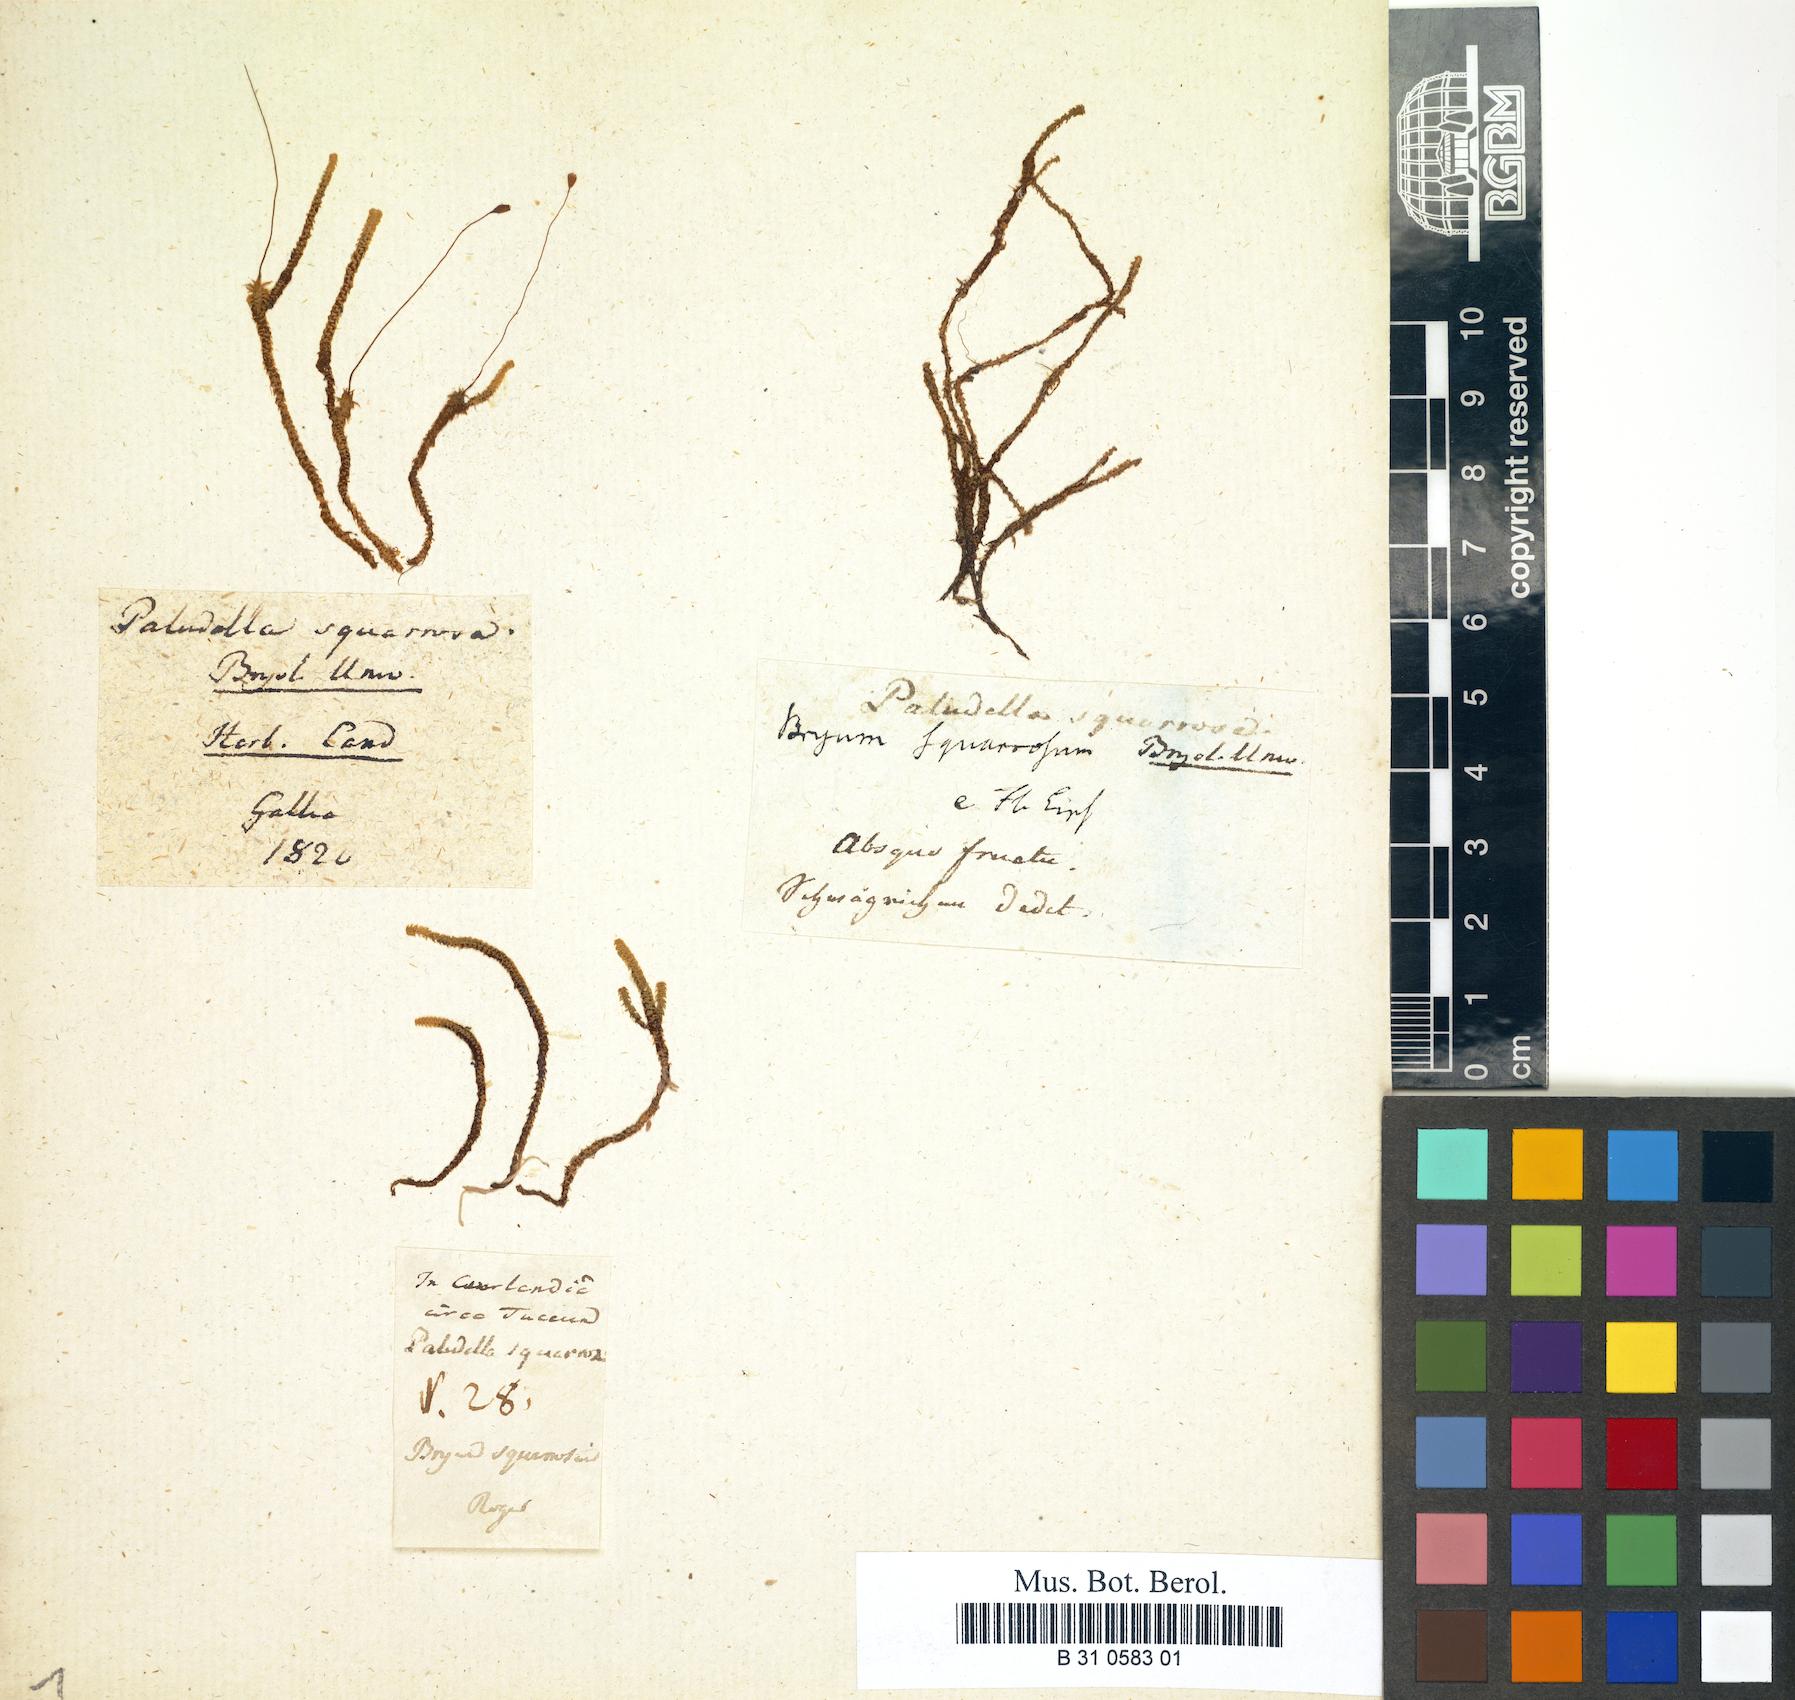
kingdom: Plantae
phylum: Bryophyta
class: Bryopsida
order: Splachnales
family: Meesiaceae
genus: Paludella
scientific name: Paludella squarrosa
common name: Tufted fen moss
